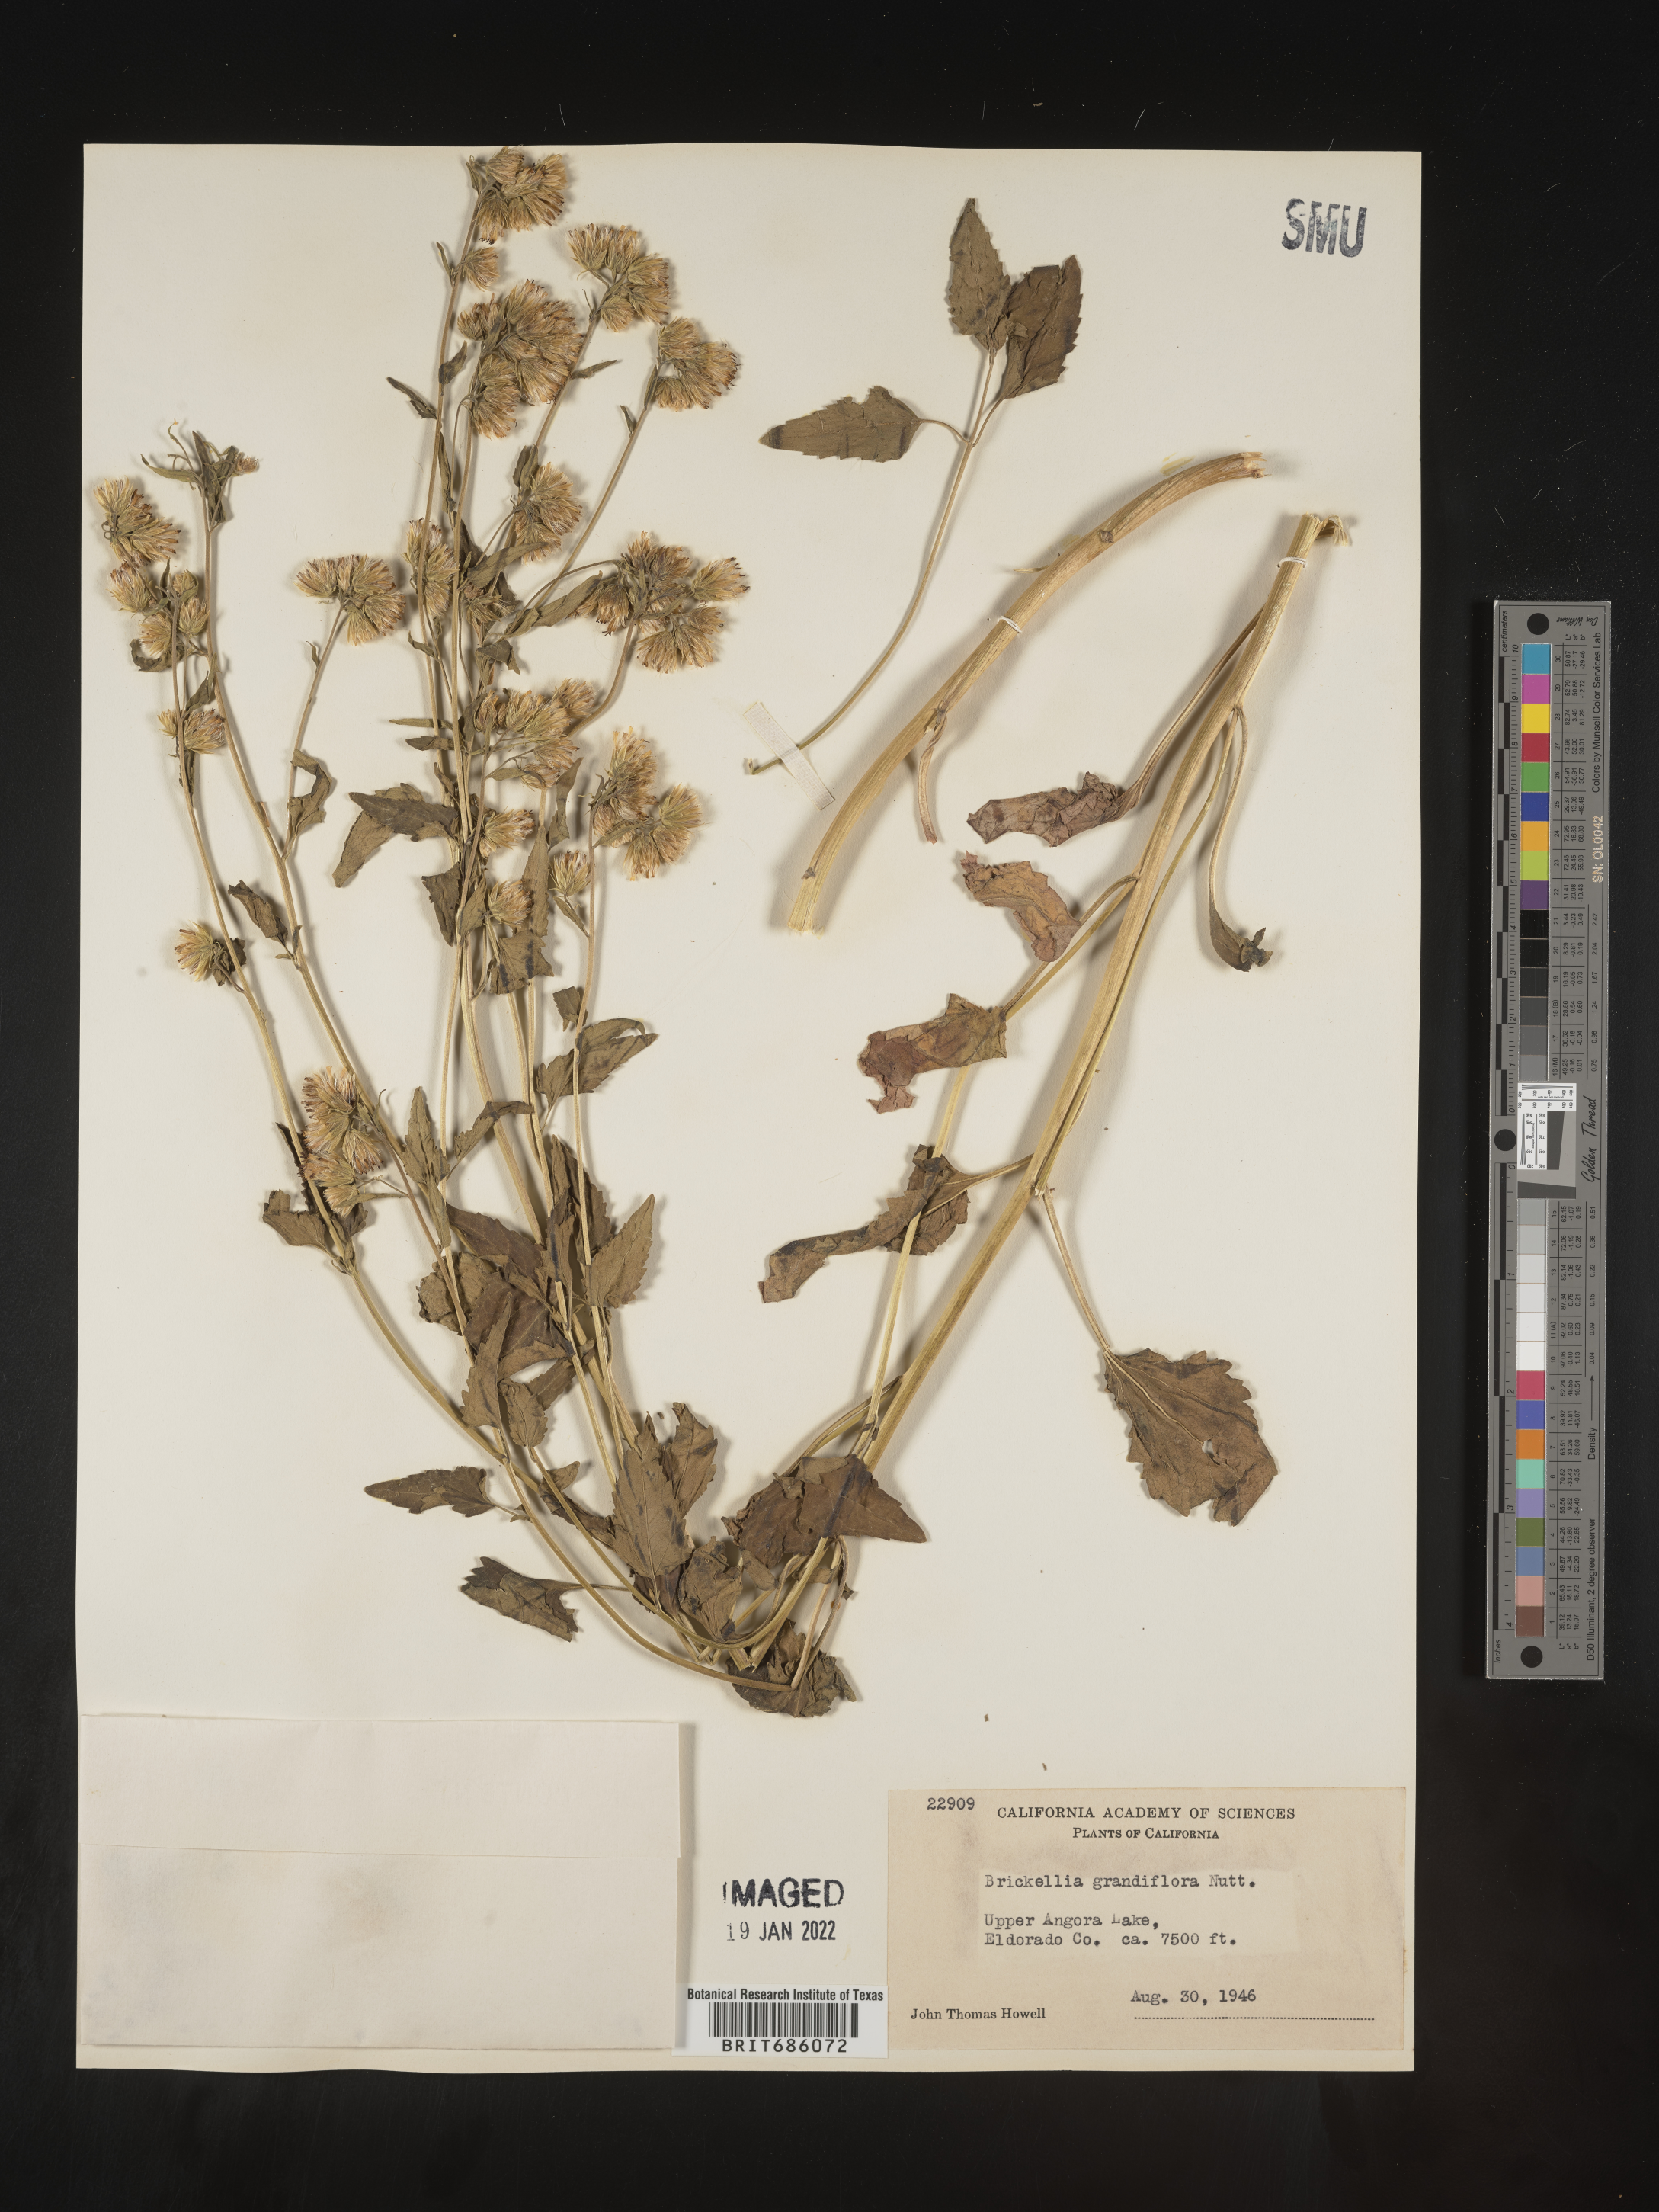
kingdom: Plantae
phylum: Tracheophyta
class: Magnoliopsida
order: Asterales
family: Asteraceae
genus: Brickellia
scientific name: Brickellia grandiflora
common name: Large-flowered brickellia
